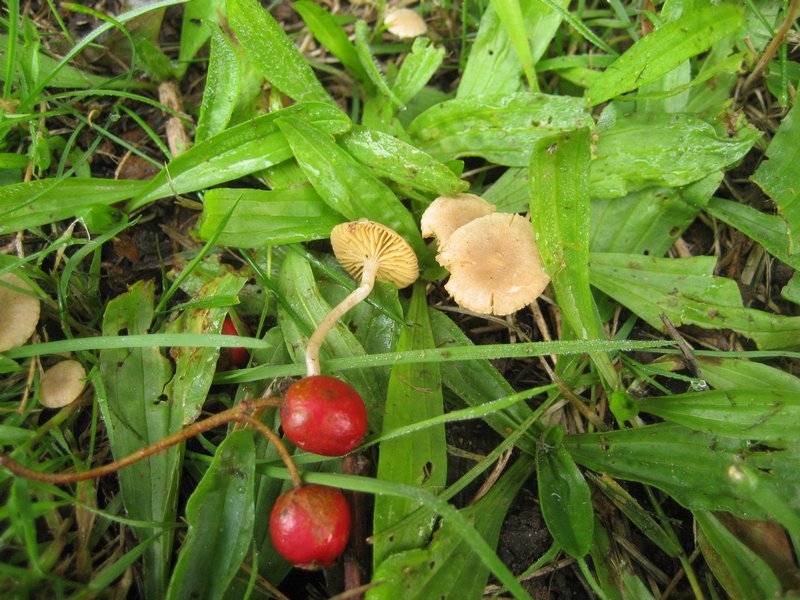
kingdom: Fungi
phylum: Basidiomycota
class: Agaricomycetes
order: Agaricales
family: Tubariaceae
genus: Tubaria
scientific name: Tubaria dispersa
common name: tjørne-fnughat
